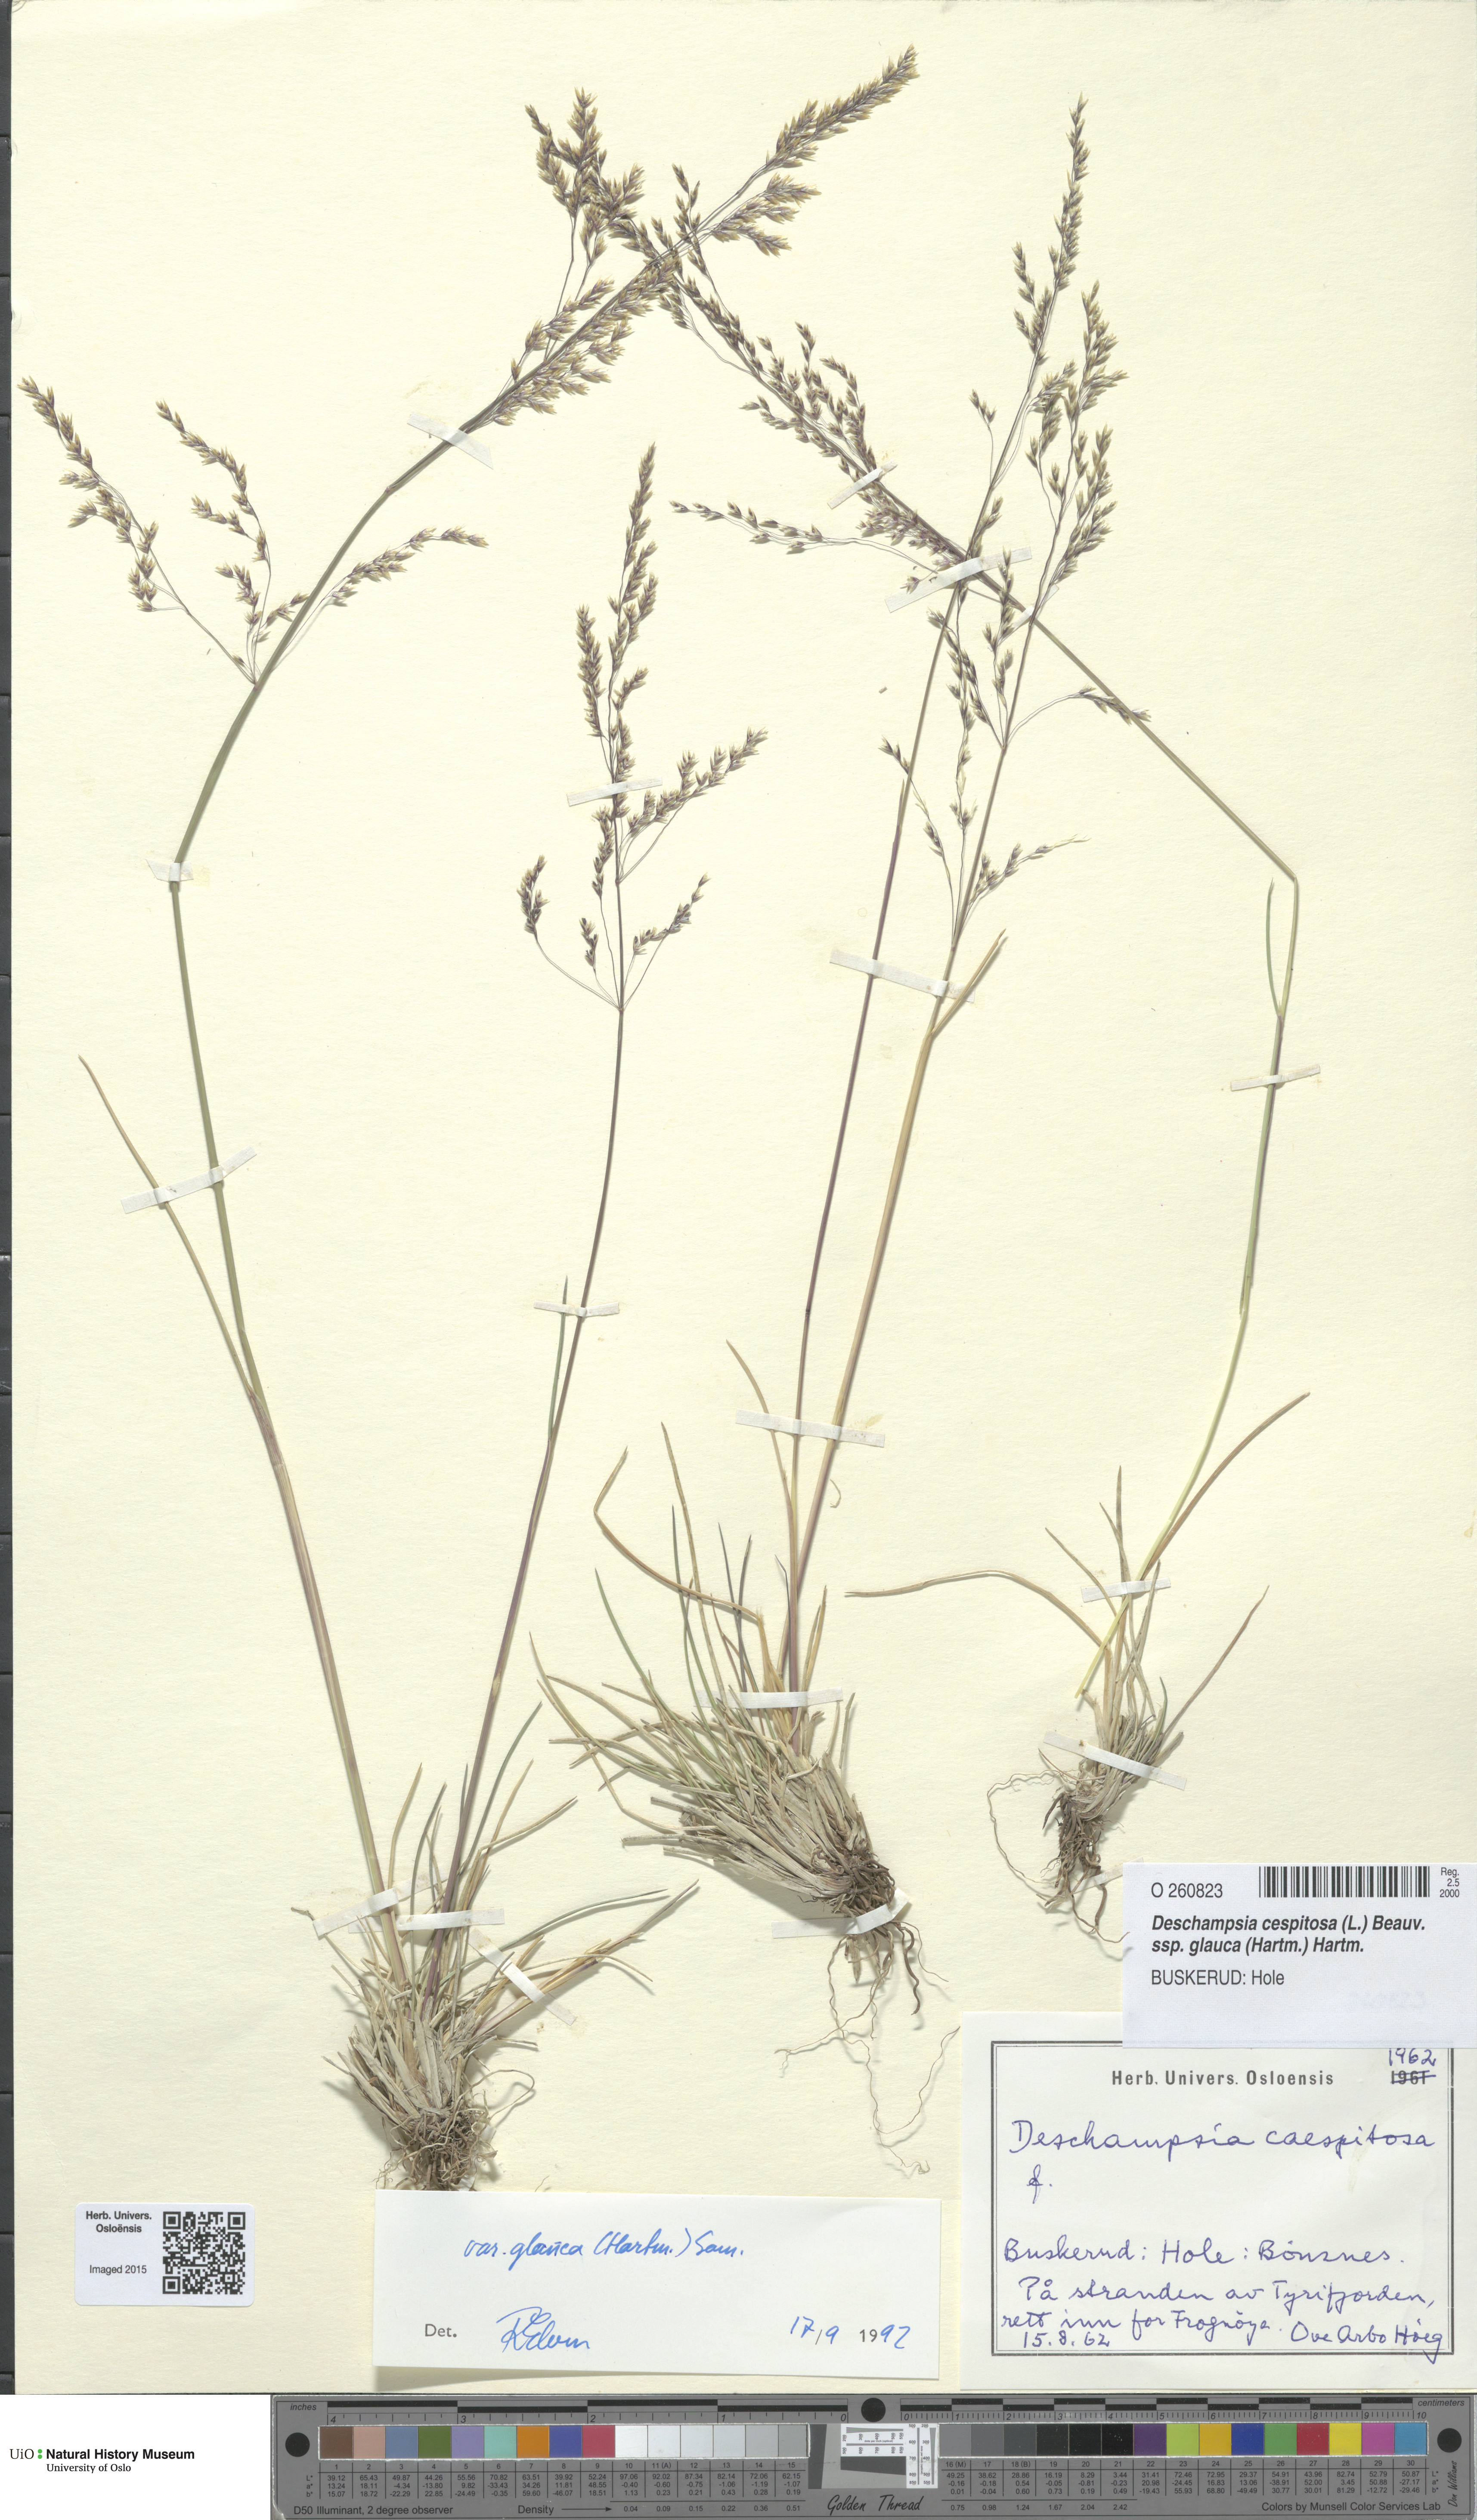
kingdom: Plantae
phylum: Tracheophyta
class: Liliopsida
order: Poales
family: Poaceae
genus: Deschampsia
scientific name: Deschampsia cespitosa
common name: Tufted hair-grass
